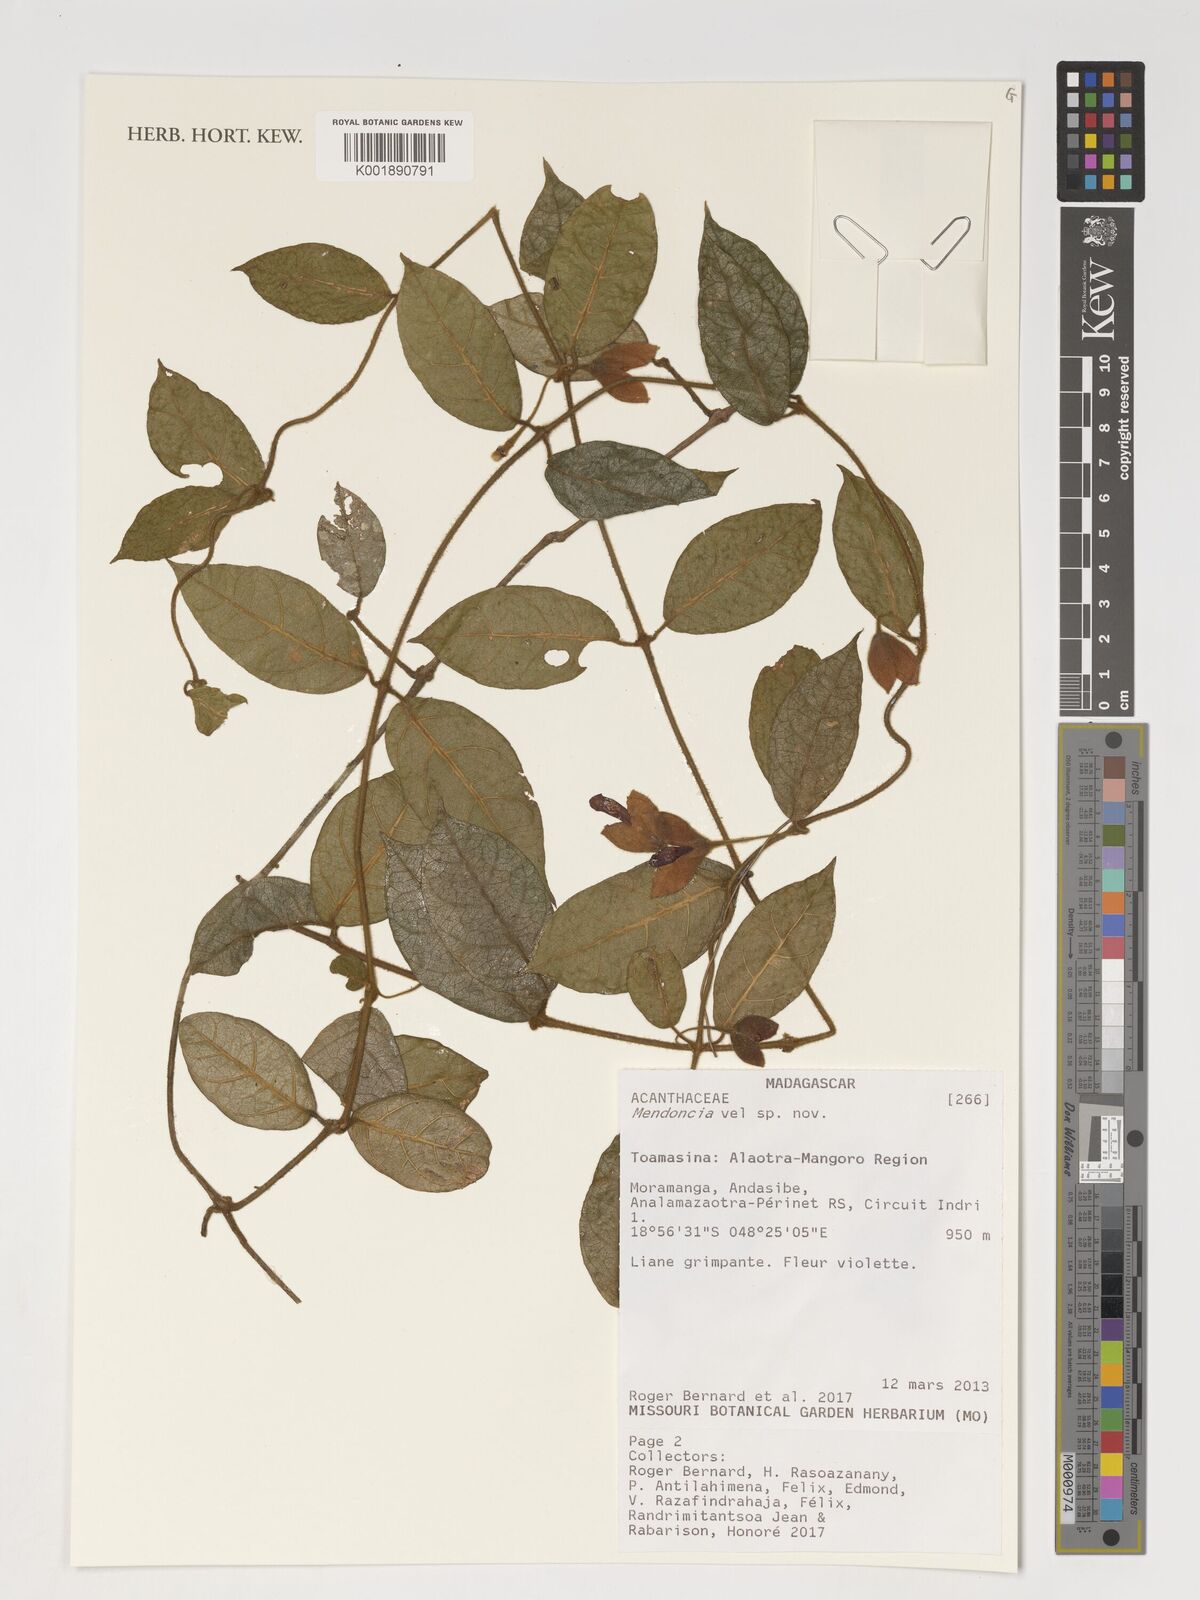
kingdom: Plantae
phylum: Tracheophyta
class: Magnoliopsida
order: Lamiales
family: Acanthaceae
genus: Mendoncia
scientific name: Mendoncia
